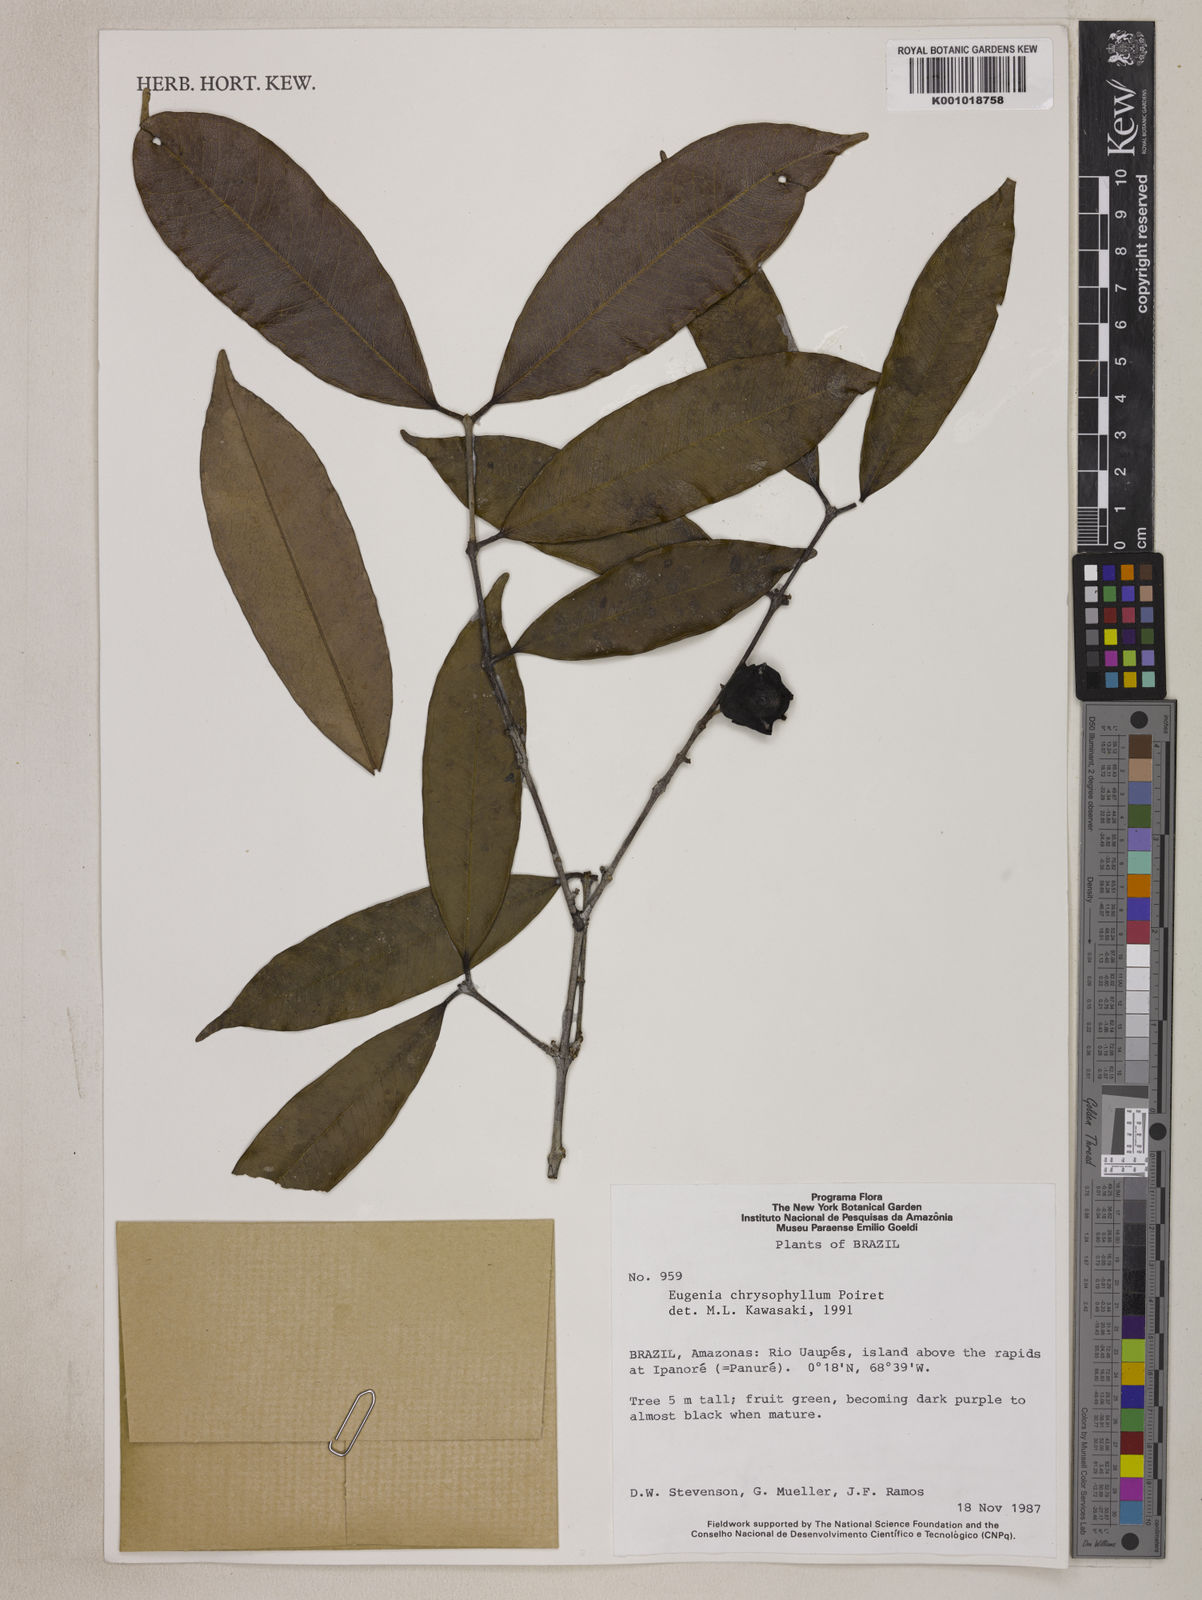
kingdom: Plantae
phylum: Tracheophyta
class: Magnoliopsida
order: Myrtales
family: Myrtaceae
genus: Eugenia
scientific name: Eugenia chrysophyllum
